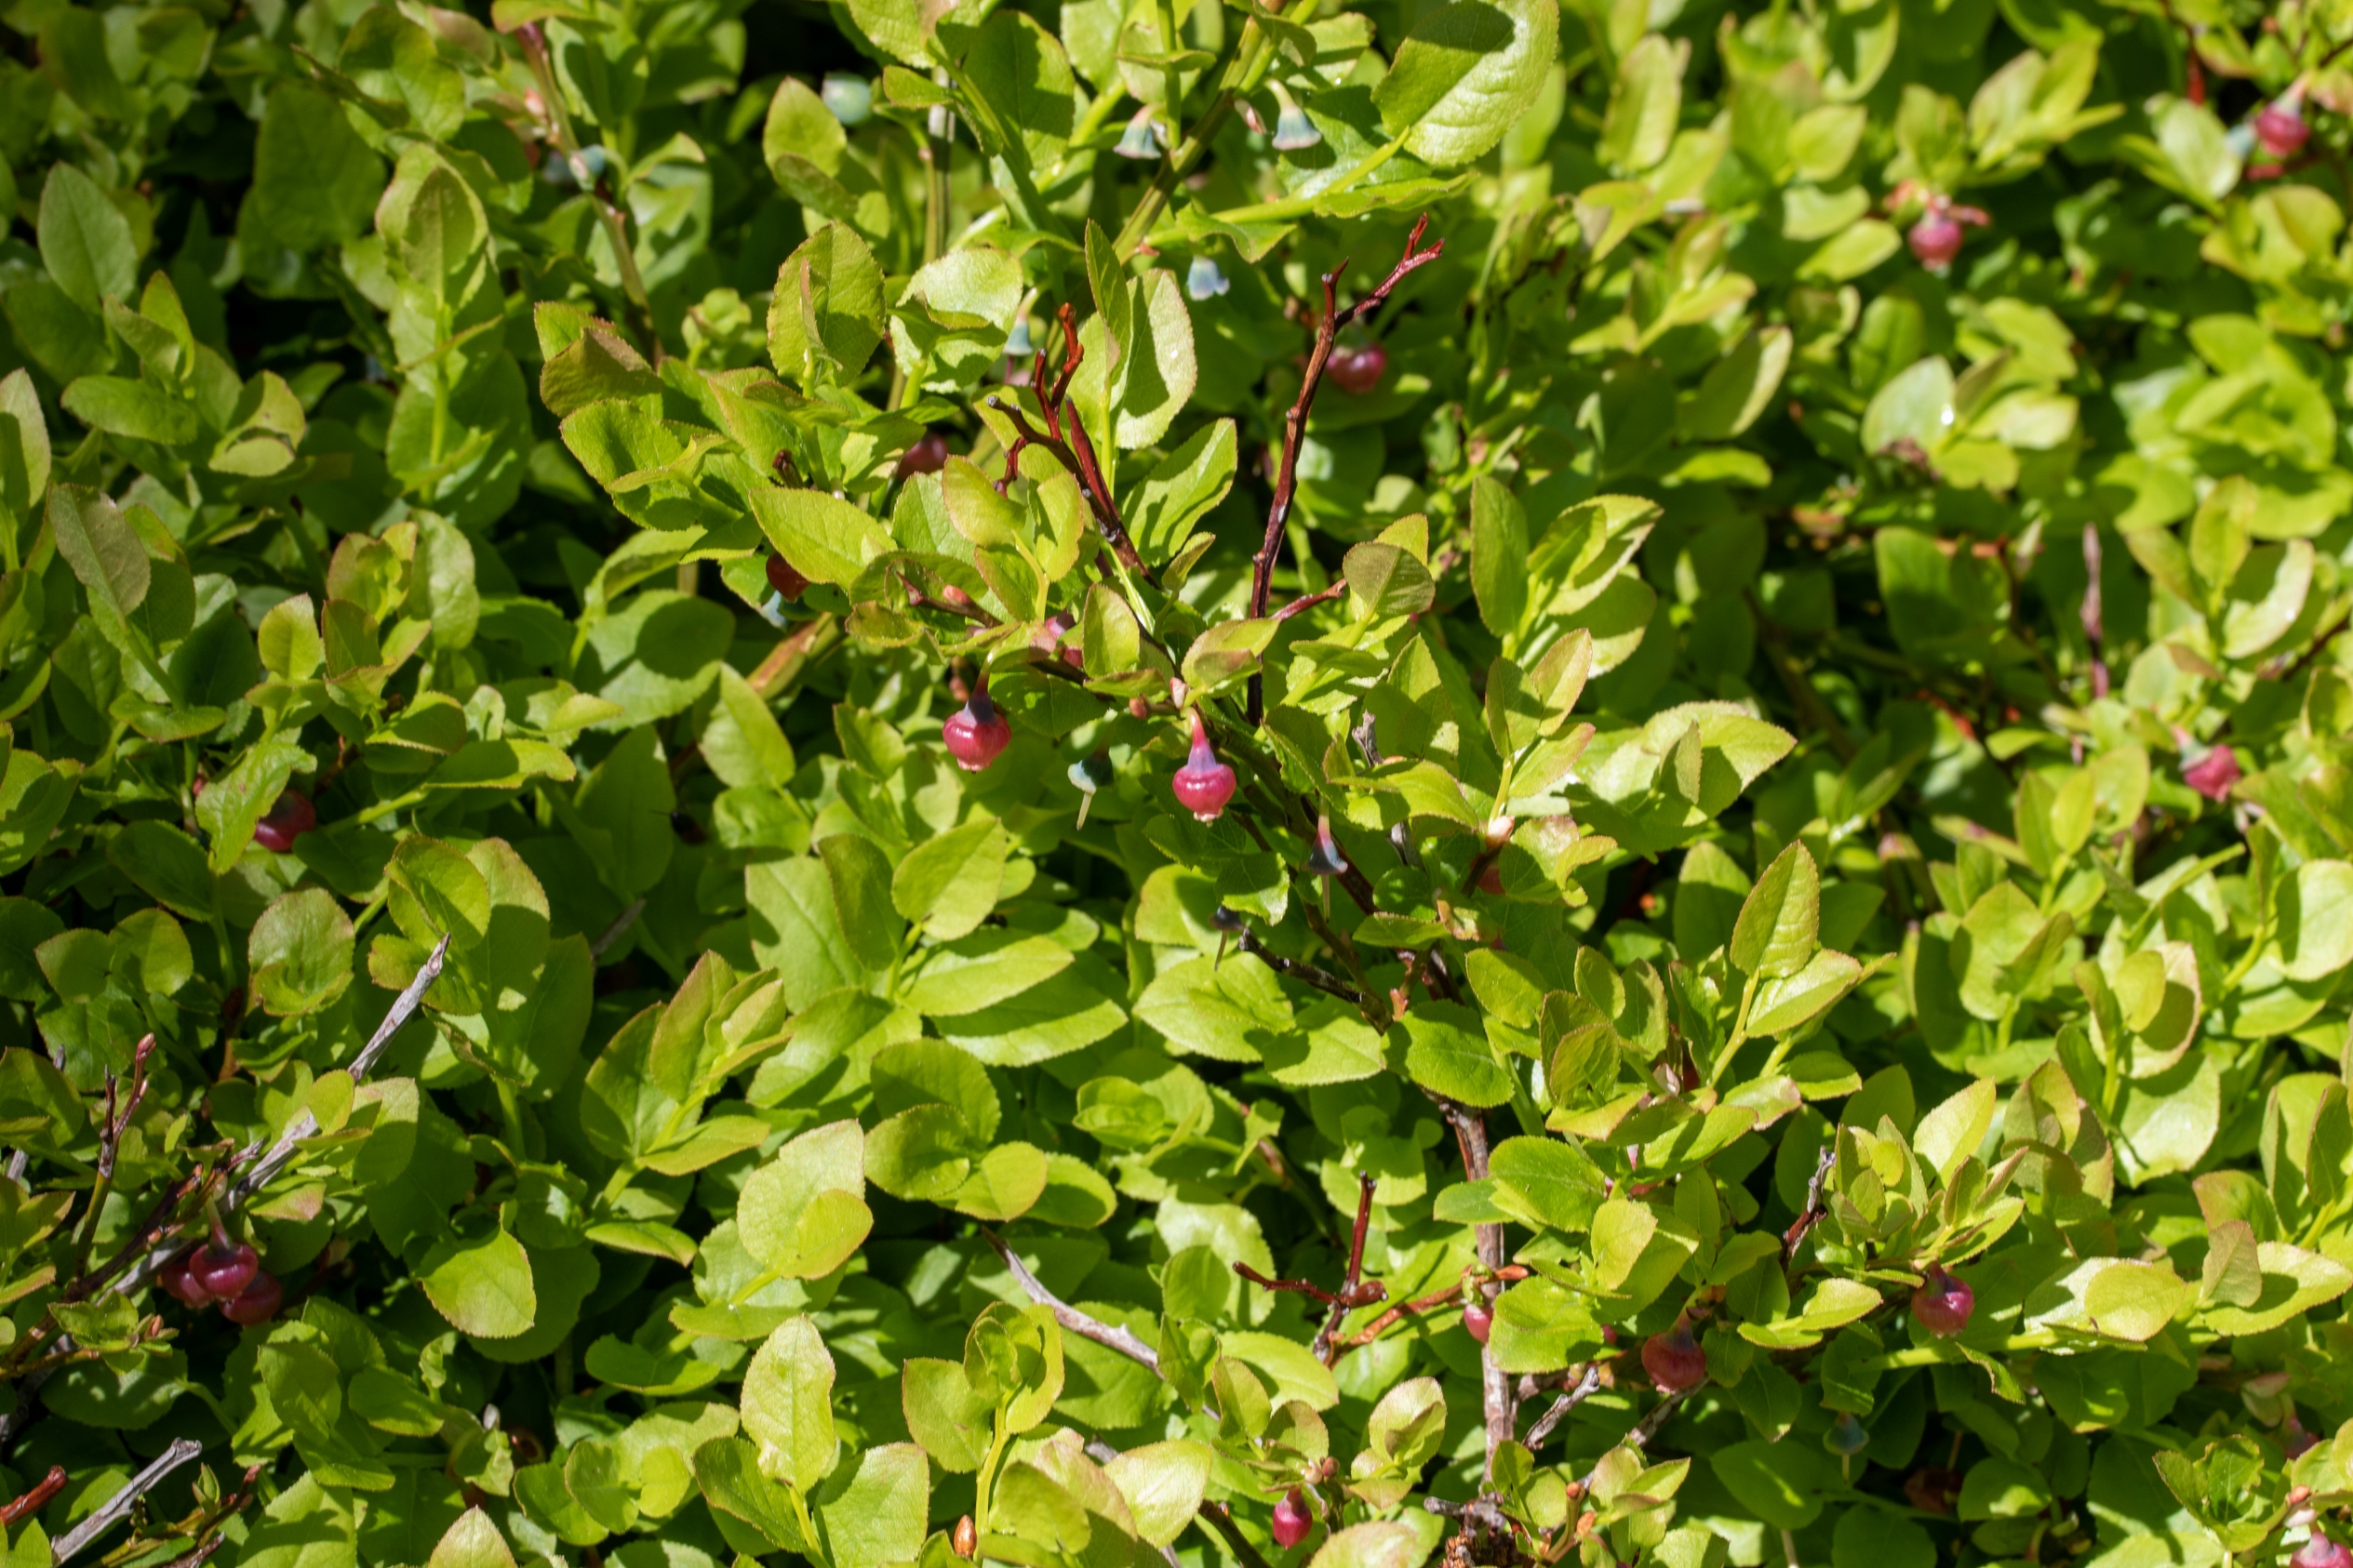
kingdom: Plantae
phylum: Tracheophyta
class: Magnoliopsida
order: Ericales
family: Ericaceae
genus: Vaccinium
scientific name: Vaccinium myrtillus
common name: Blåbær
